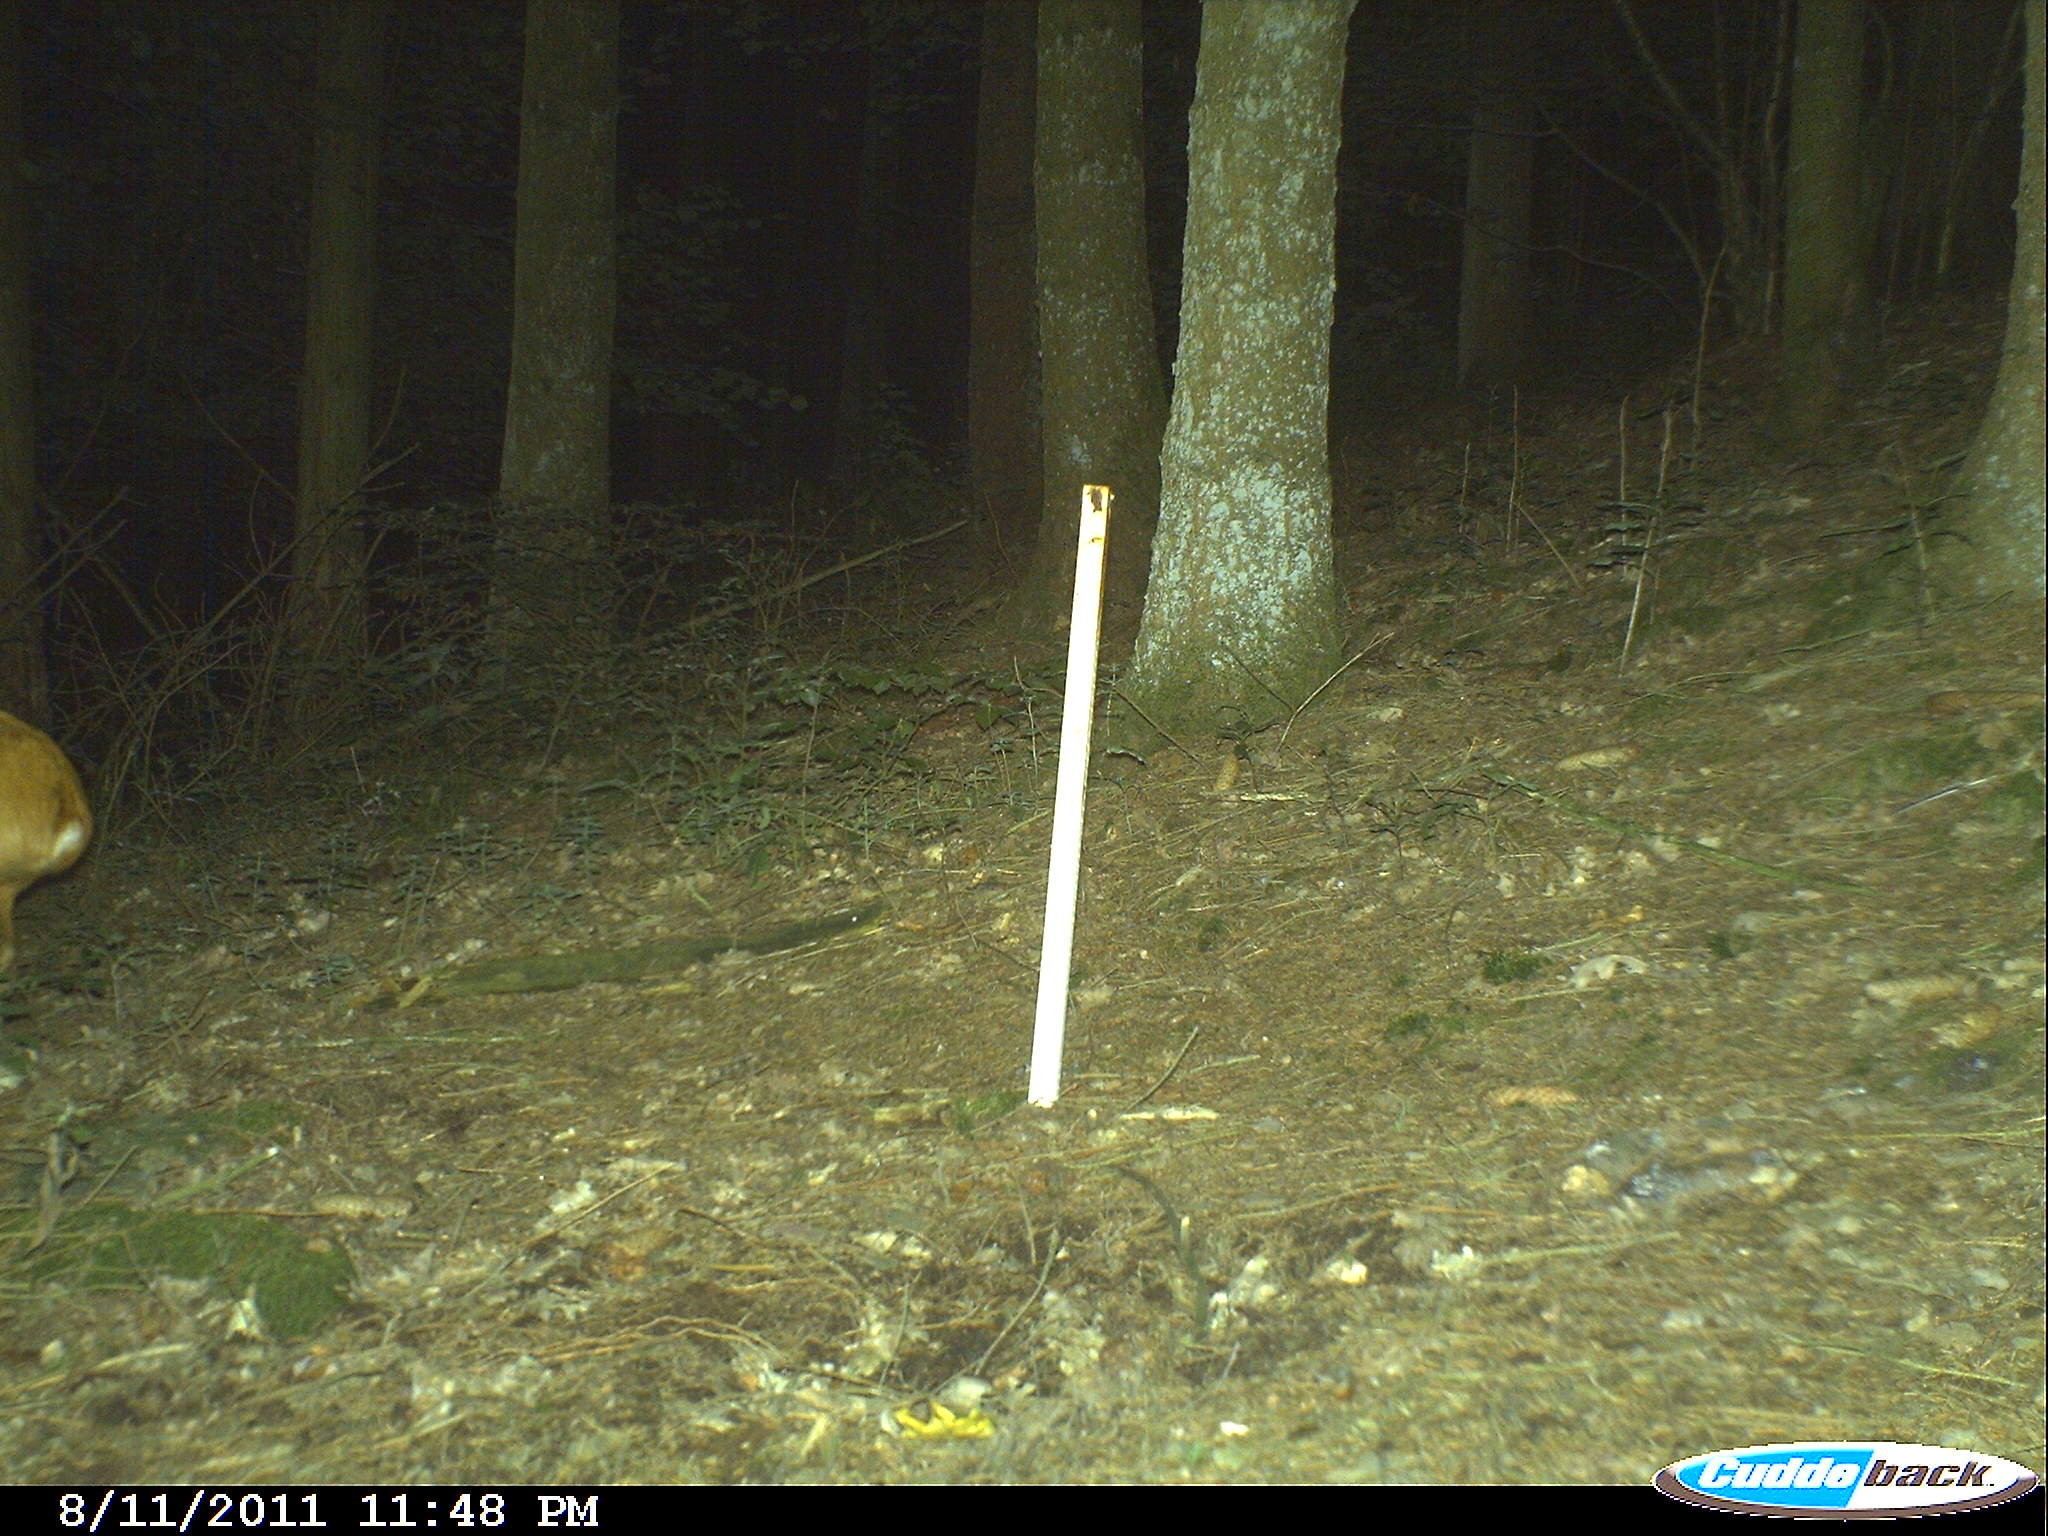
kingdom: Animalia
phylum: Chordata
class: Mammalia
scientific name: Mammalia
